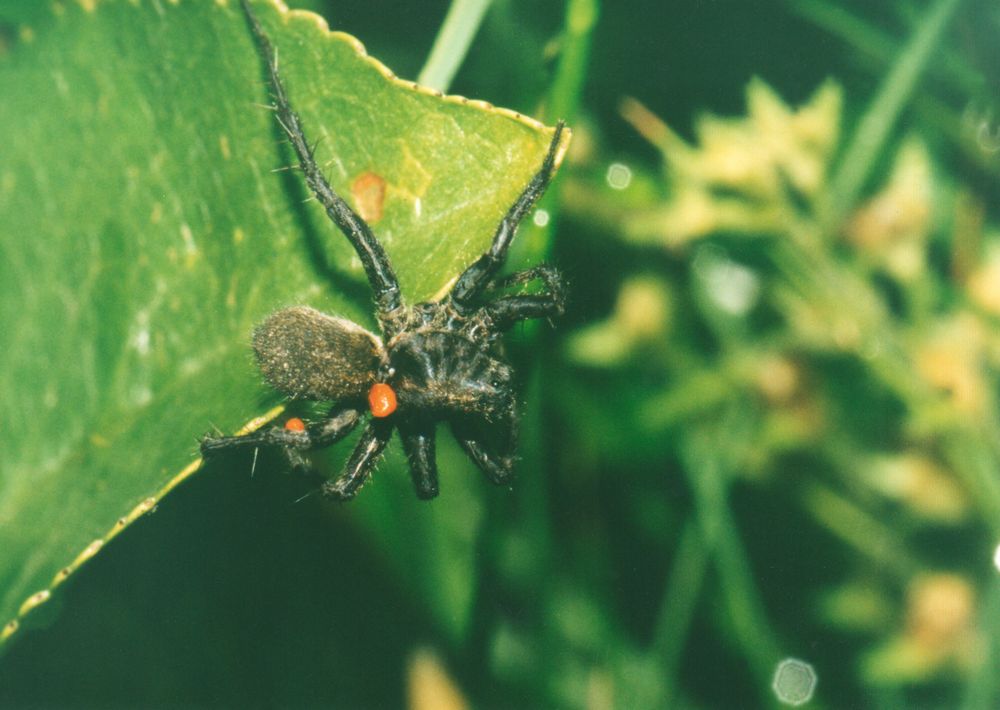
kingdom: Animalia
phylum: Arthropoda
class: Arachnida
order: Araneae
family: Lycosidae
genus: Pardosa
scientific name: Pardosa
